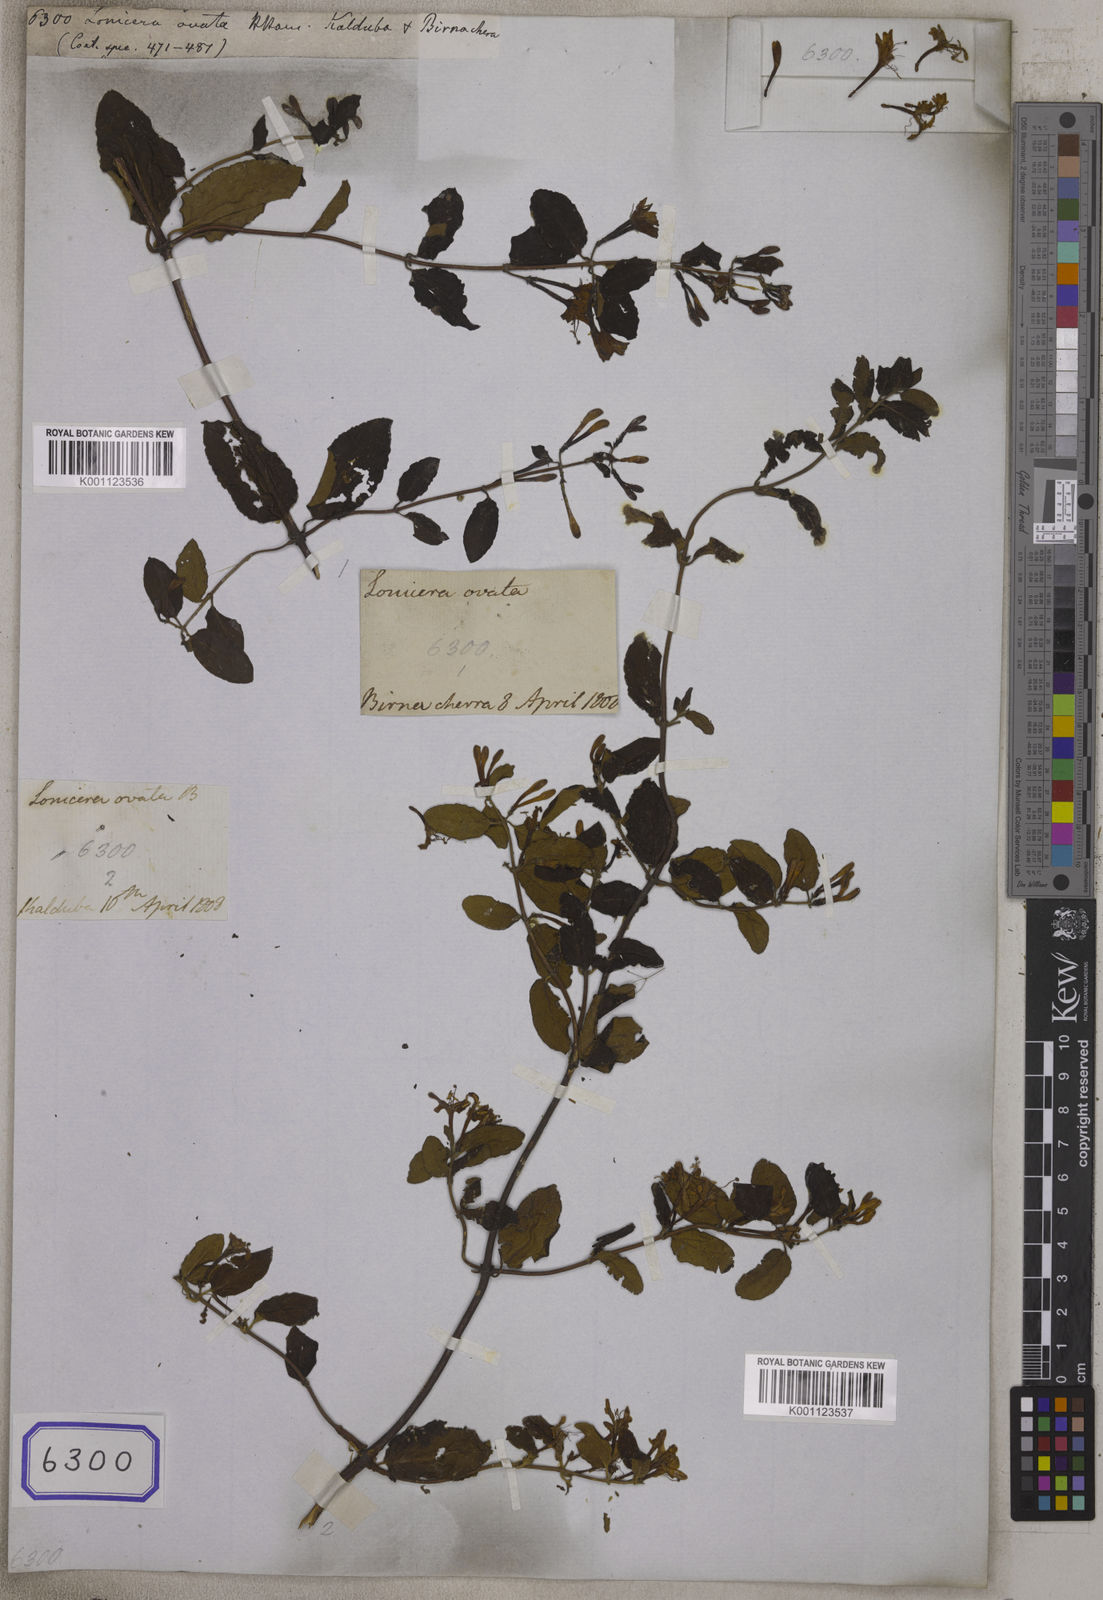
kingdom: Plantae
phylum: Tracheophyta
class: Magnoliopsida
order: Dipsacales
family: Caprifoliaceae
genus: Lonicera
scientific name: Lonicera
